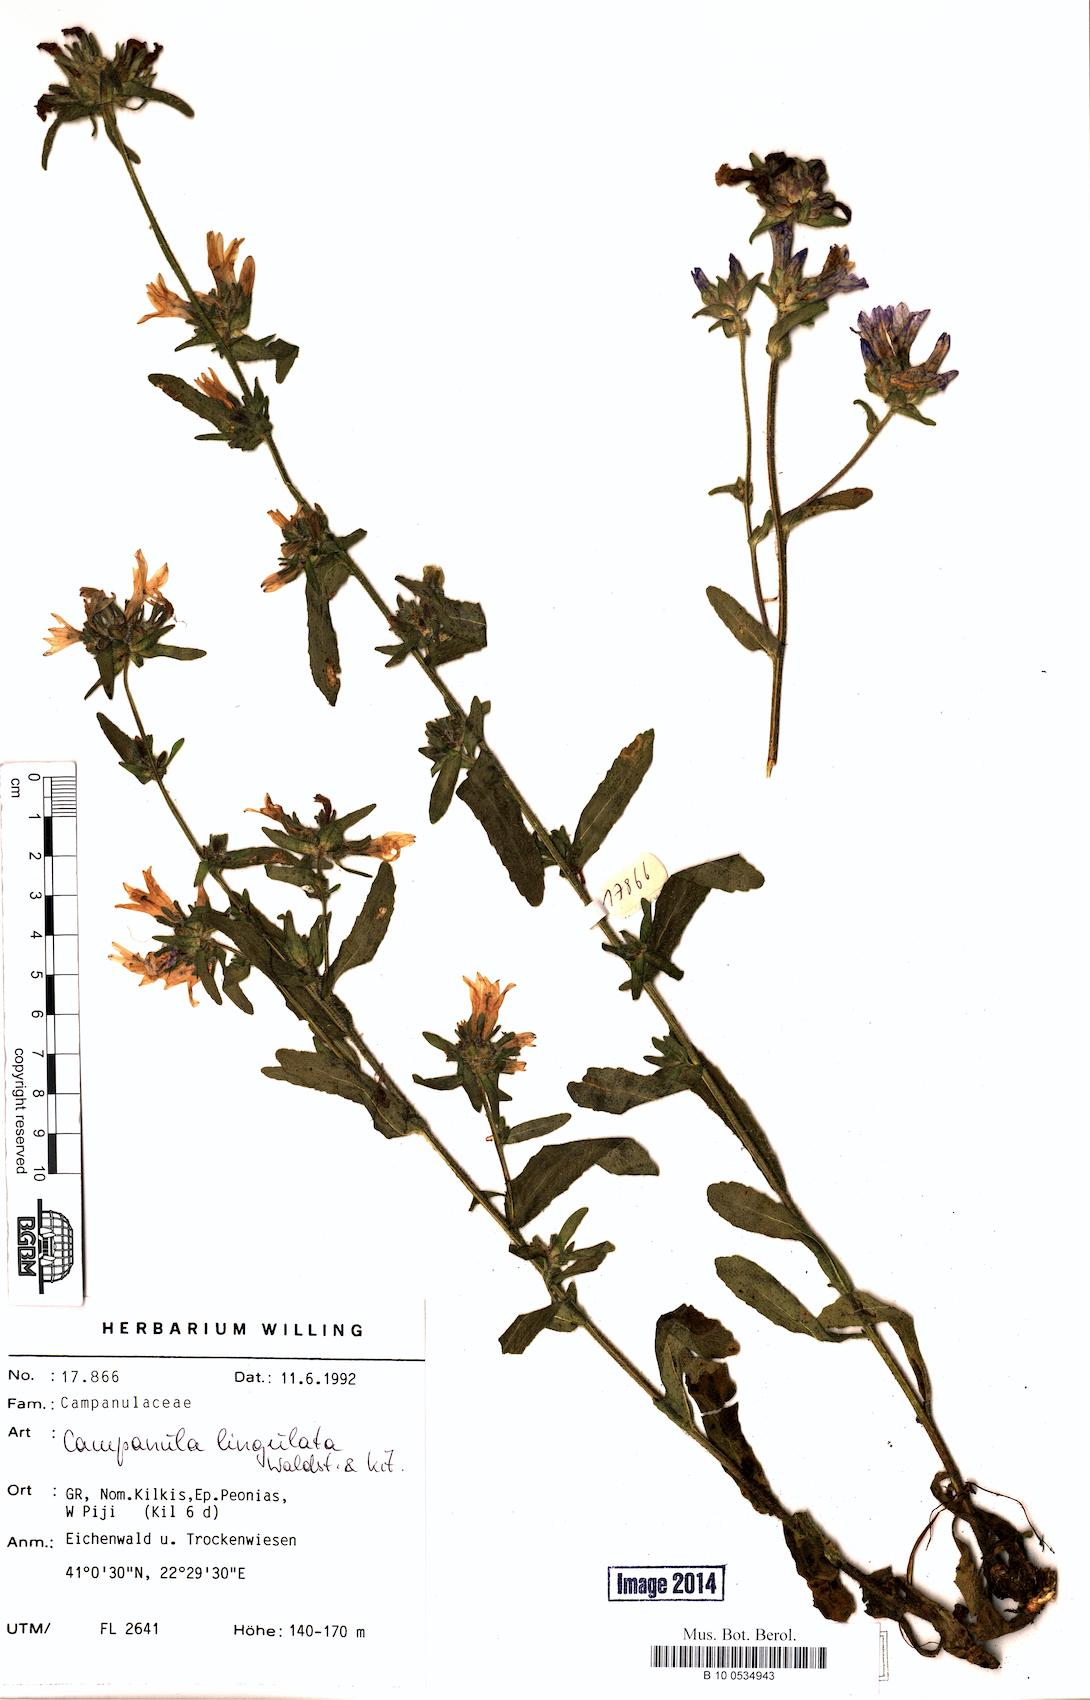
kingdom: Plantae
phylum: Tracheophyta
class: Magnoliopsida
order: Asterales
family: Campanulaceae
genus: Campanula
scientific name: Campanula lingulata
